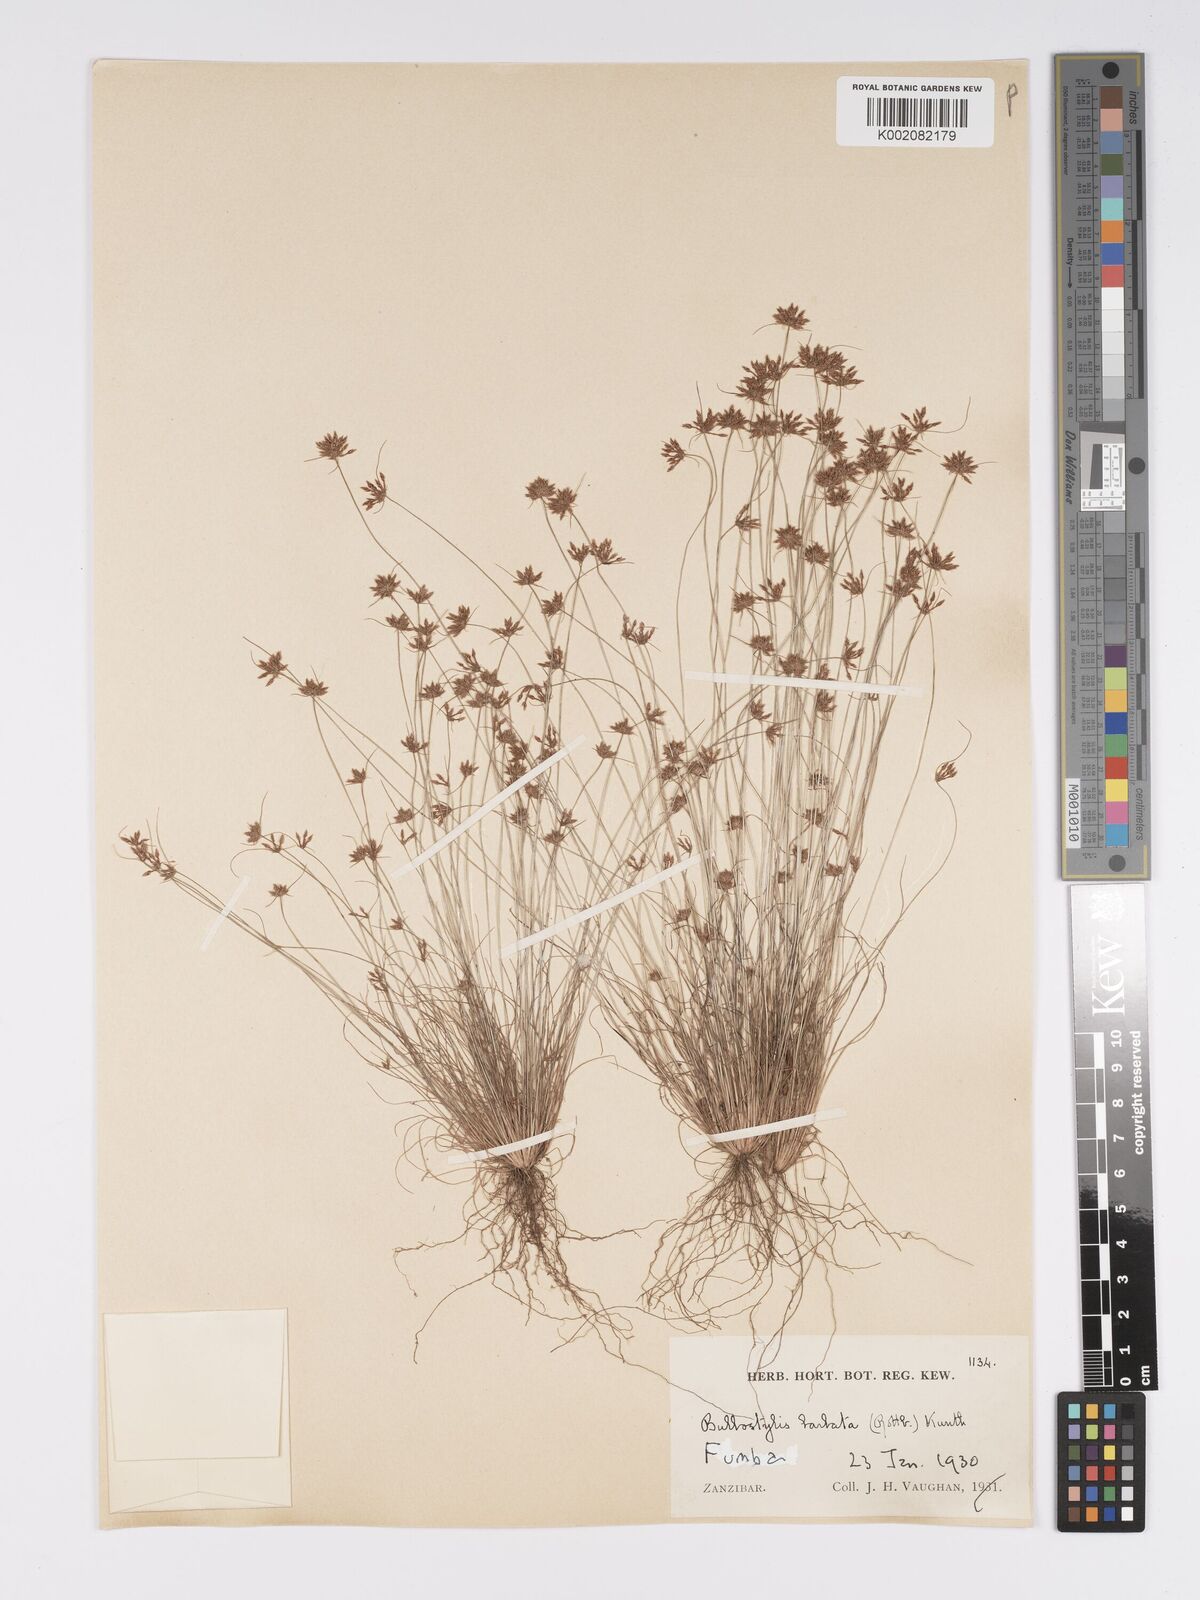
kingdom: Plantae
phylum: Tracheophyta
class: Liliopsida
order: Poales
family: Cyperaceae
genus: Bulbostylis
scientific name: Bulbostylis barbata
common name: Watergrass
